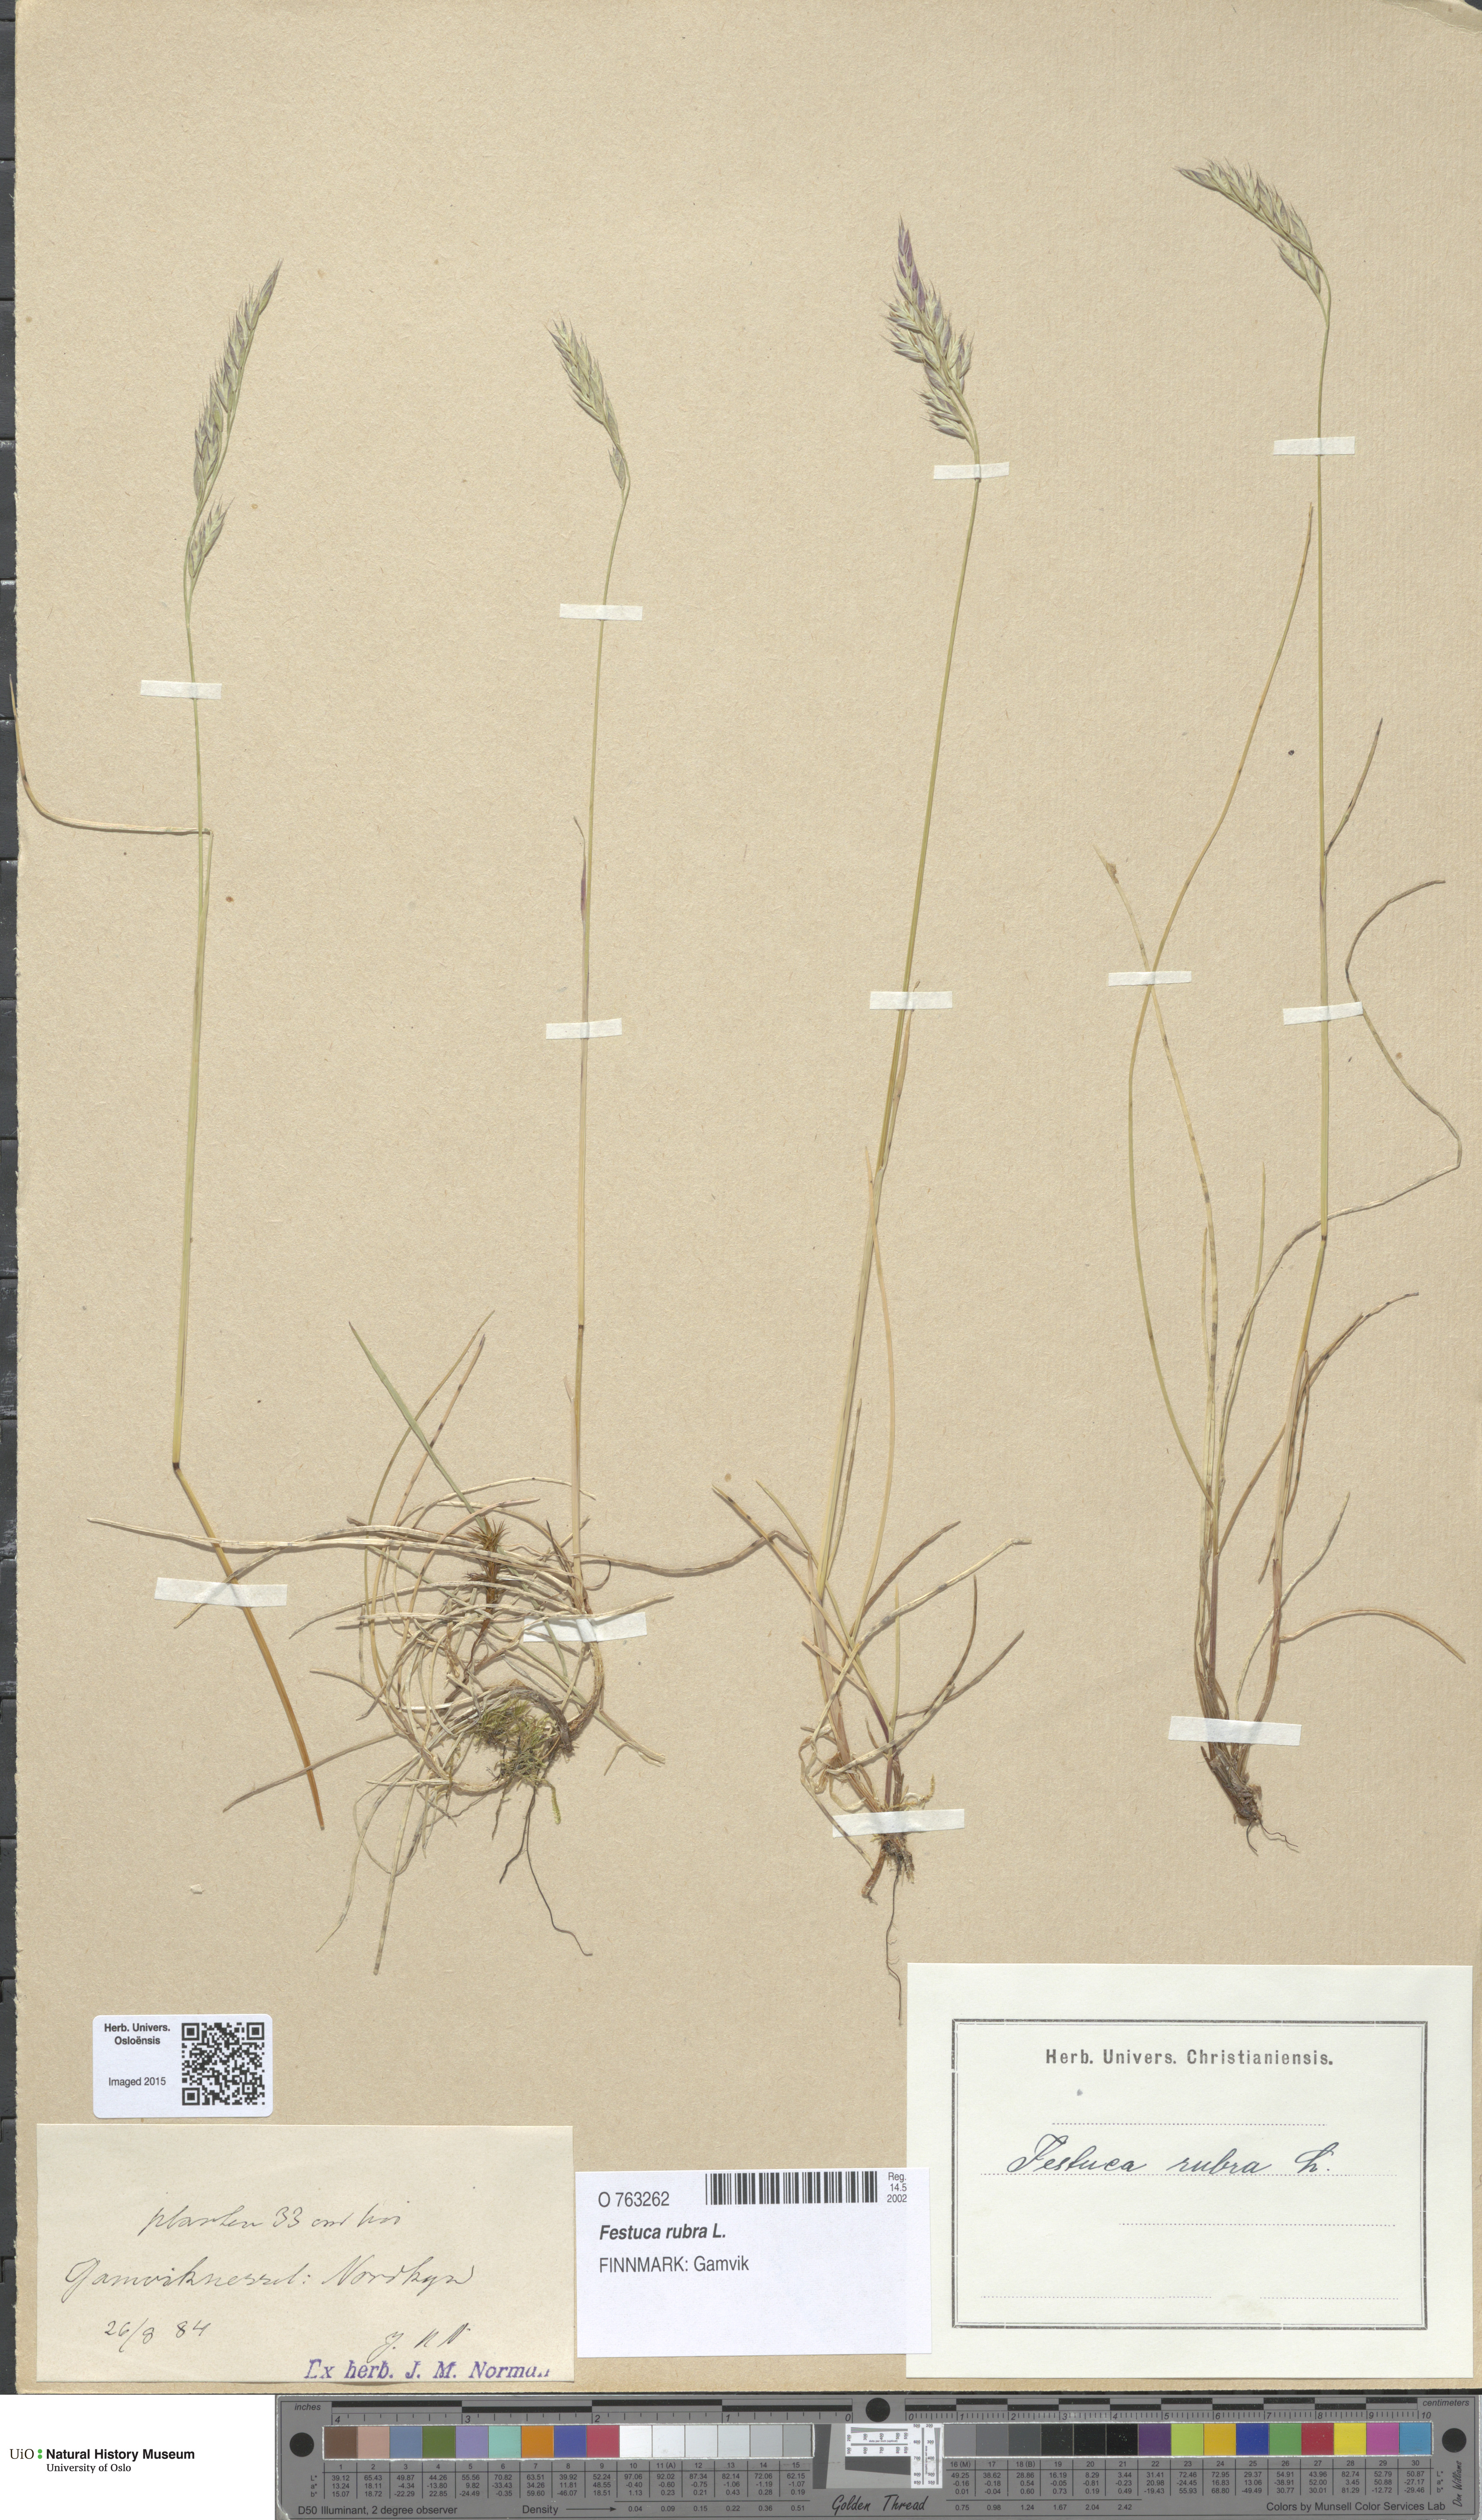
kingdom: Plantae
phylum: Tracheophyta
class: Liliopsida
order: Poales
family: Poaceae
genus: Festuca
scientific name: Festuca rubra
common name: Red fescue
